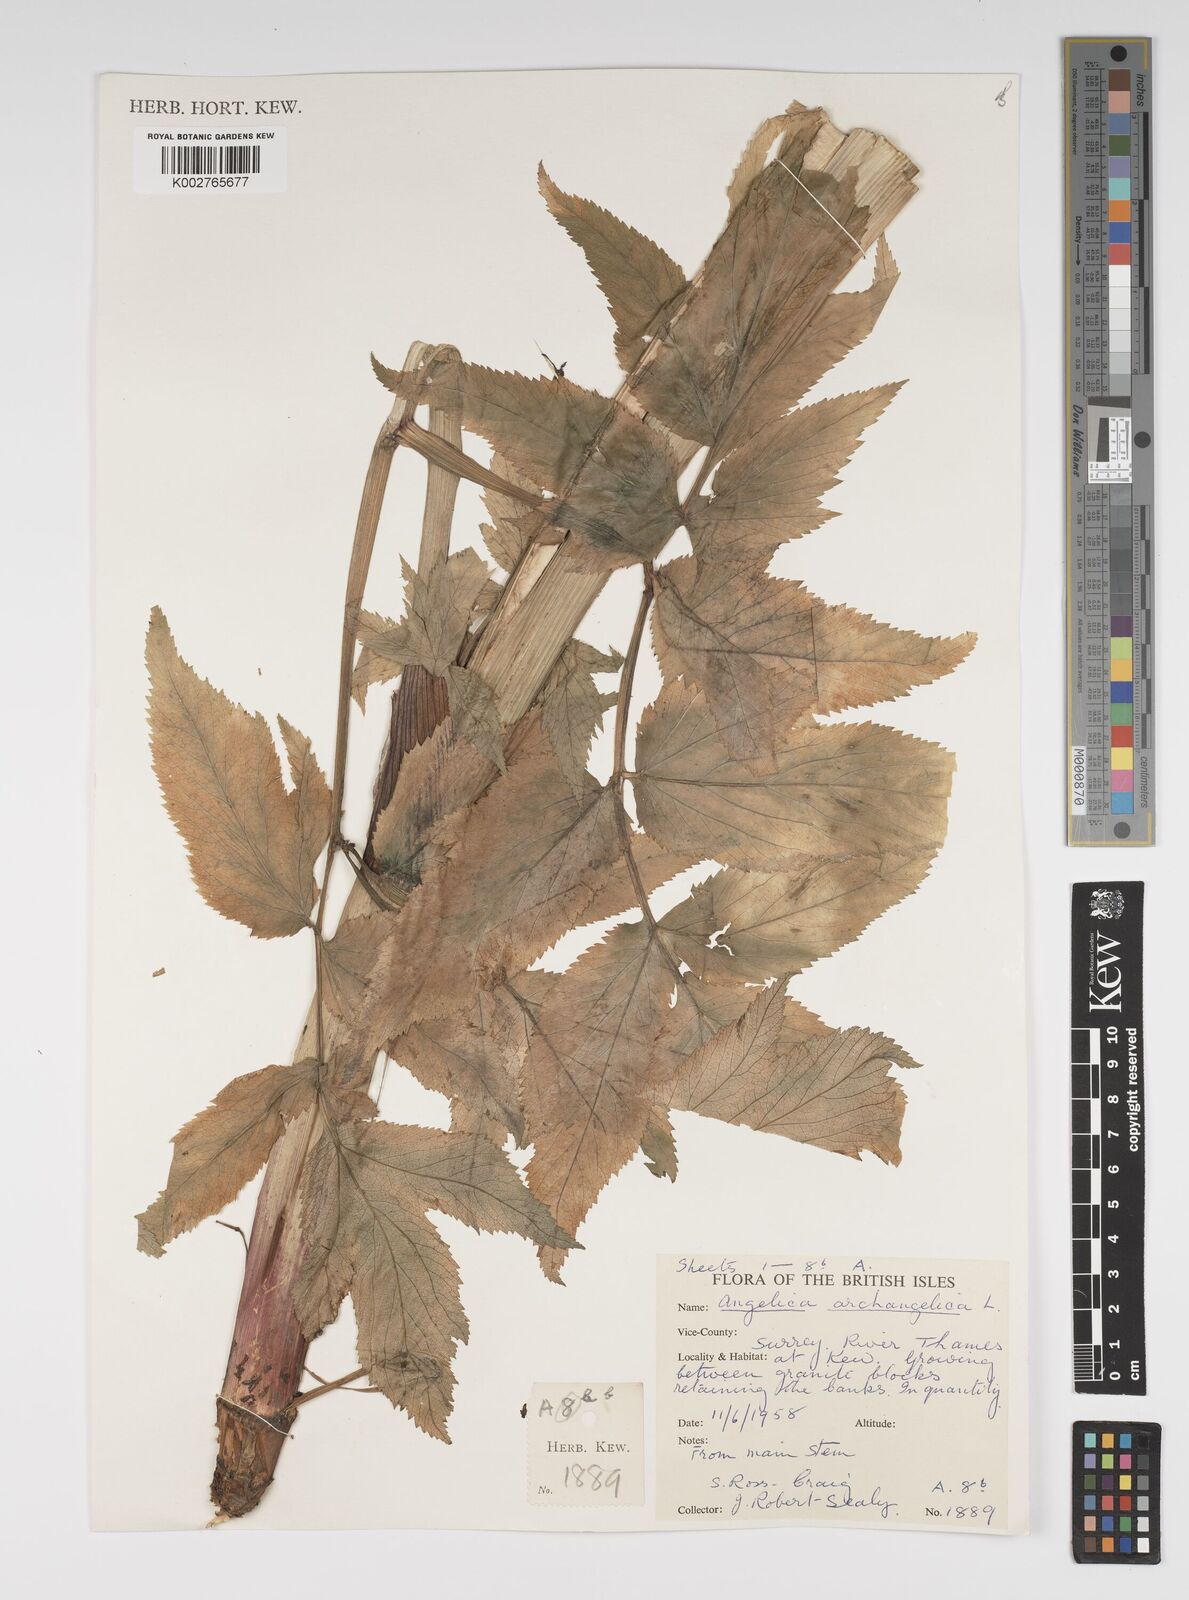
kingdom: Plantae
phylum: Tracheophyta
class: Magnoliopsida
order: Apiales
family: Apiaceae
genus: Angelica
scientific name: Angelica archangelica
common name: Garden angelica
